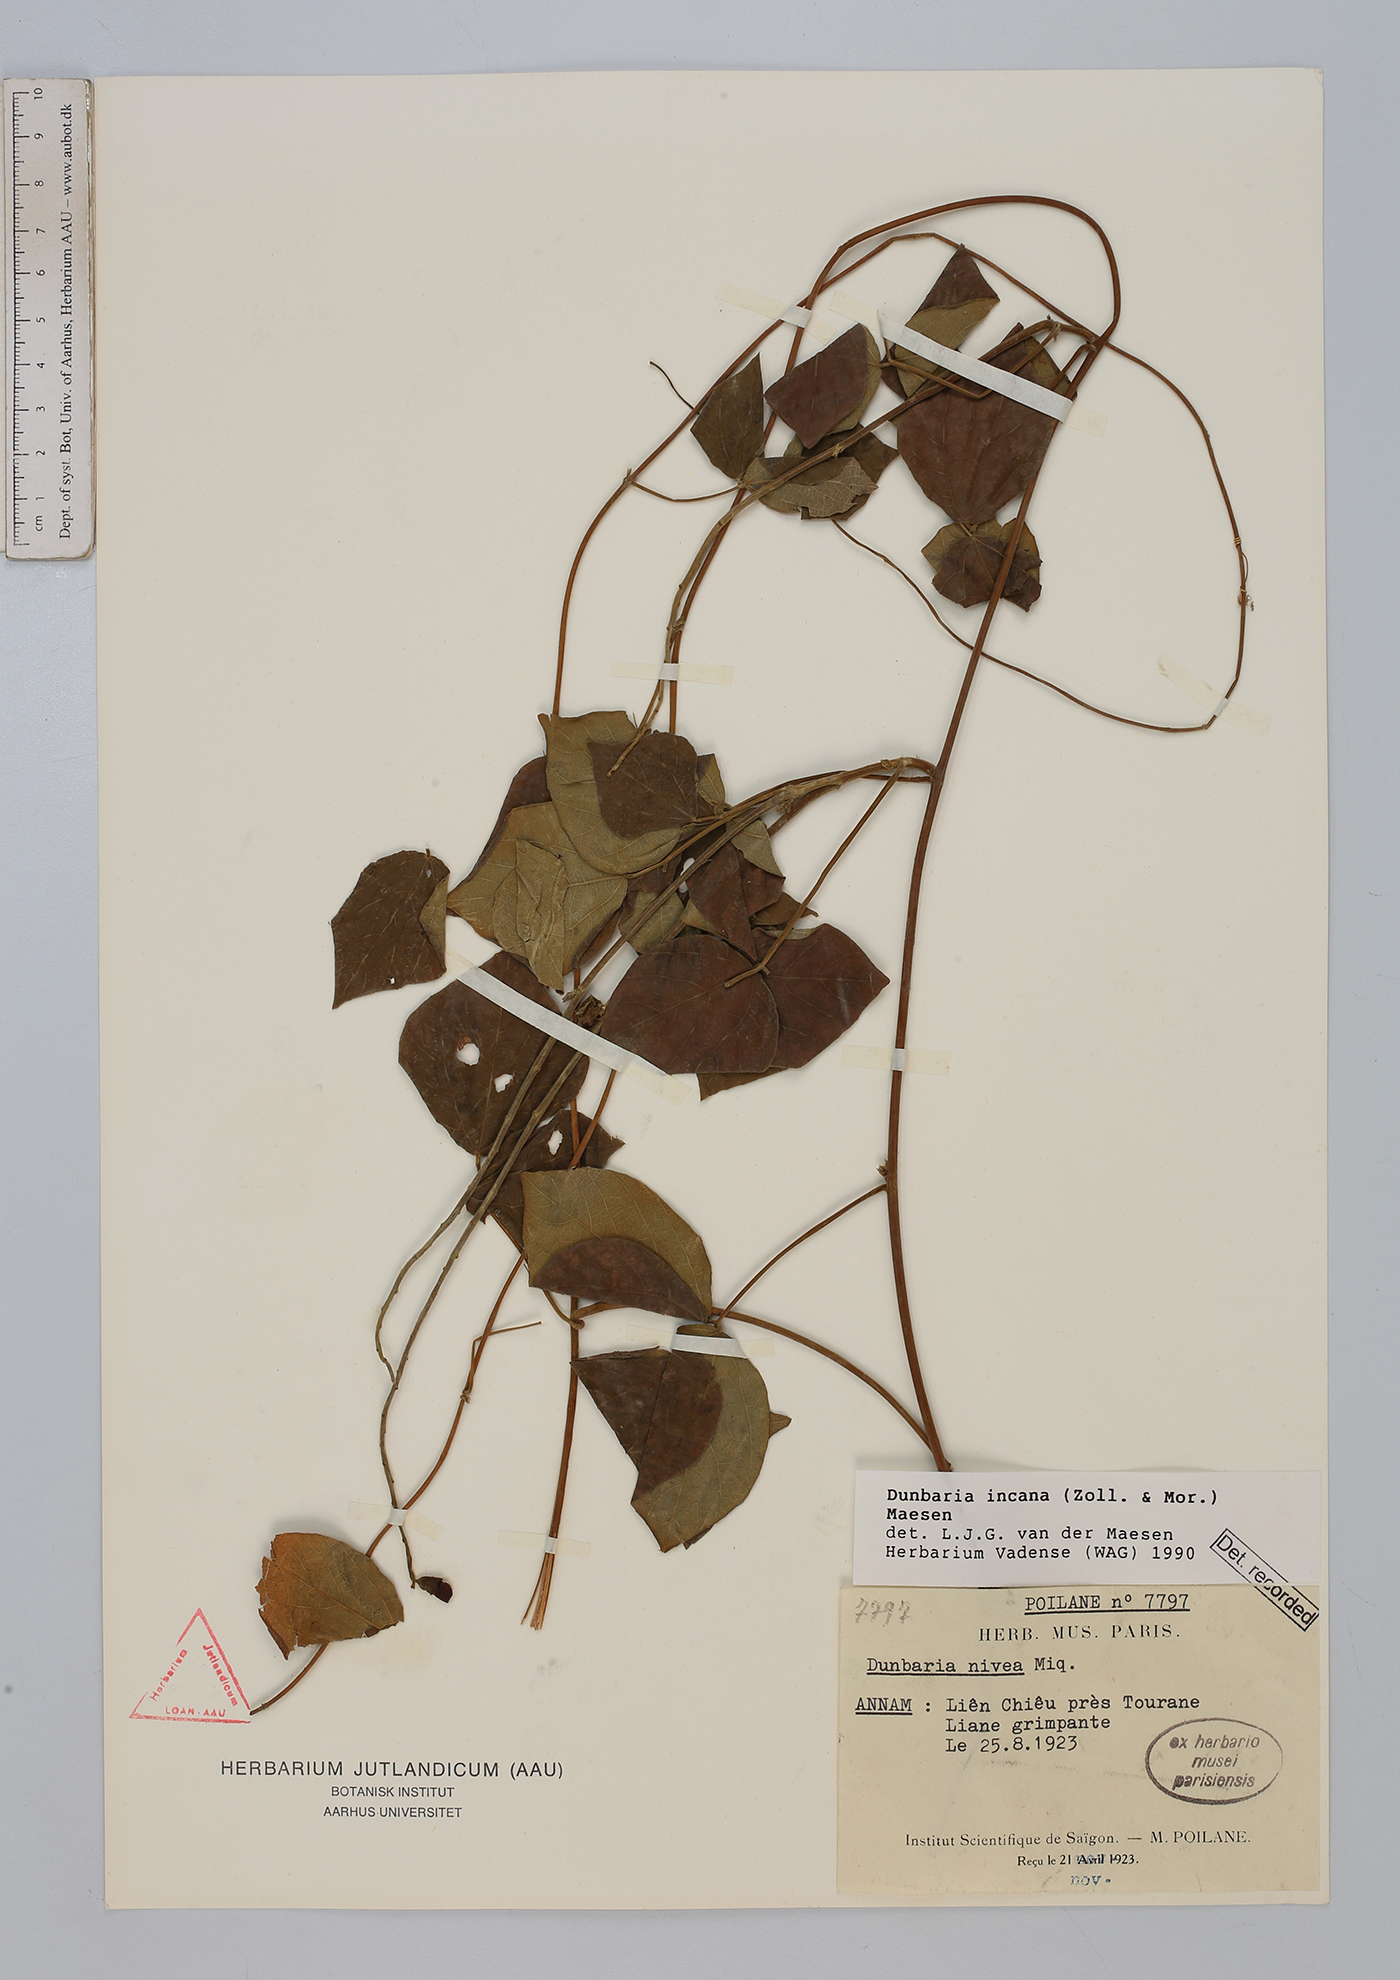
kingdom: Plantae
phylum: Tracheophyta
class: Magnoliopsida
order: Fabales
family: Fabaceae
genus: Dunbaria
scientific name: Dunbaria incana
